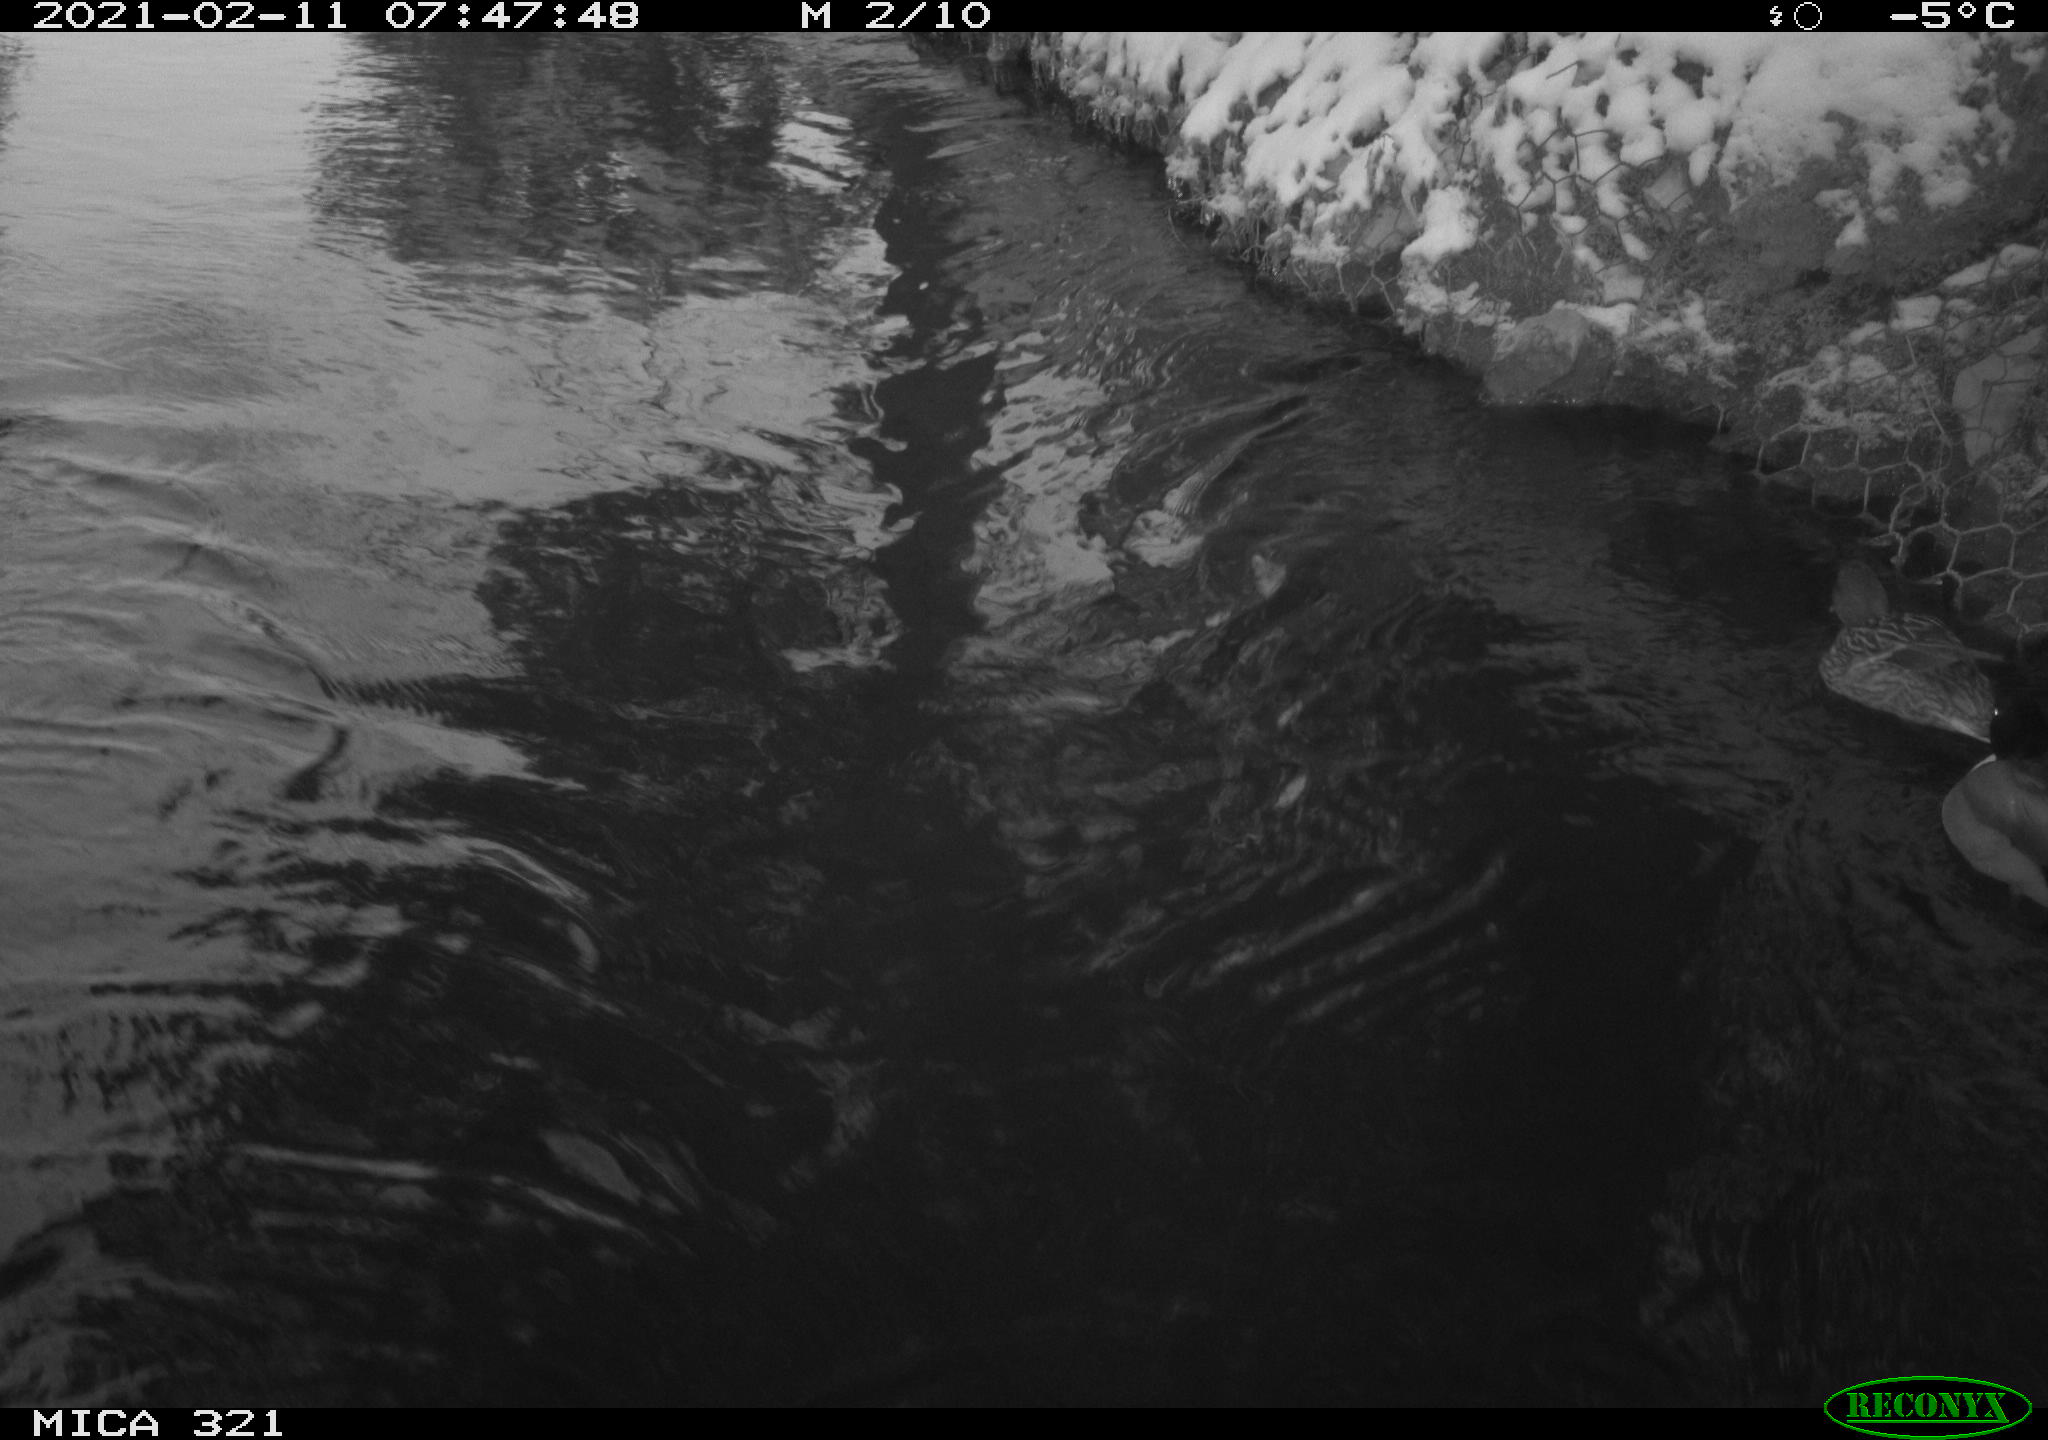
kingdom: Animalia
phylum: Chordata
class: Aves
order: Anseriformes
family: Anatidae
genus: Anas
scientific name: Anas platyrhynchos
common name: Mallard
